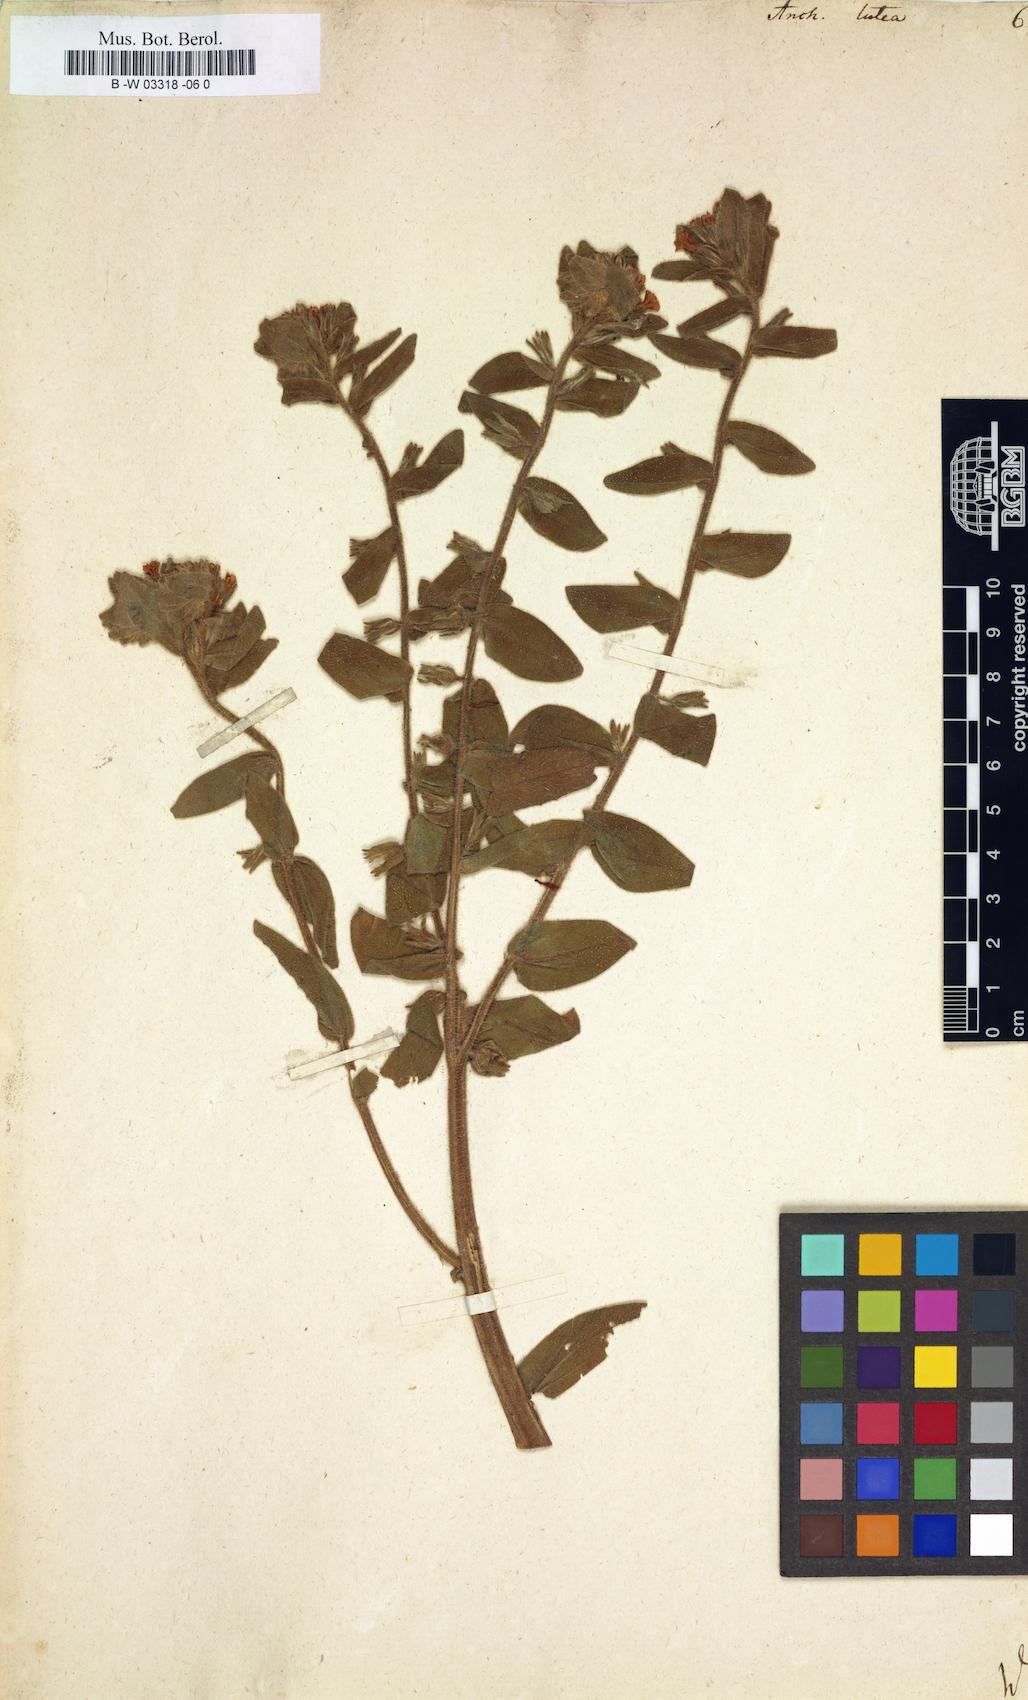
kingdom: Plantae
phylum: Tracheophyta
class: Magnoliopsida
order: Boraginales
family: Boraginaceae
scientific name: Boraginaceae
